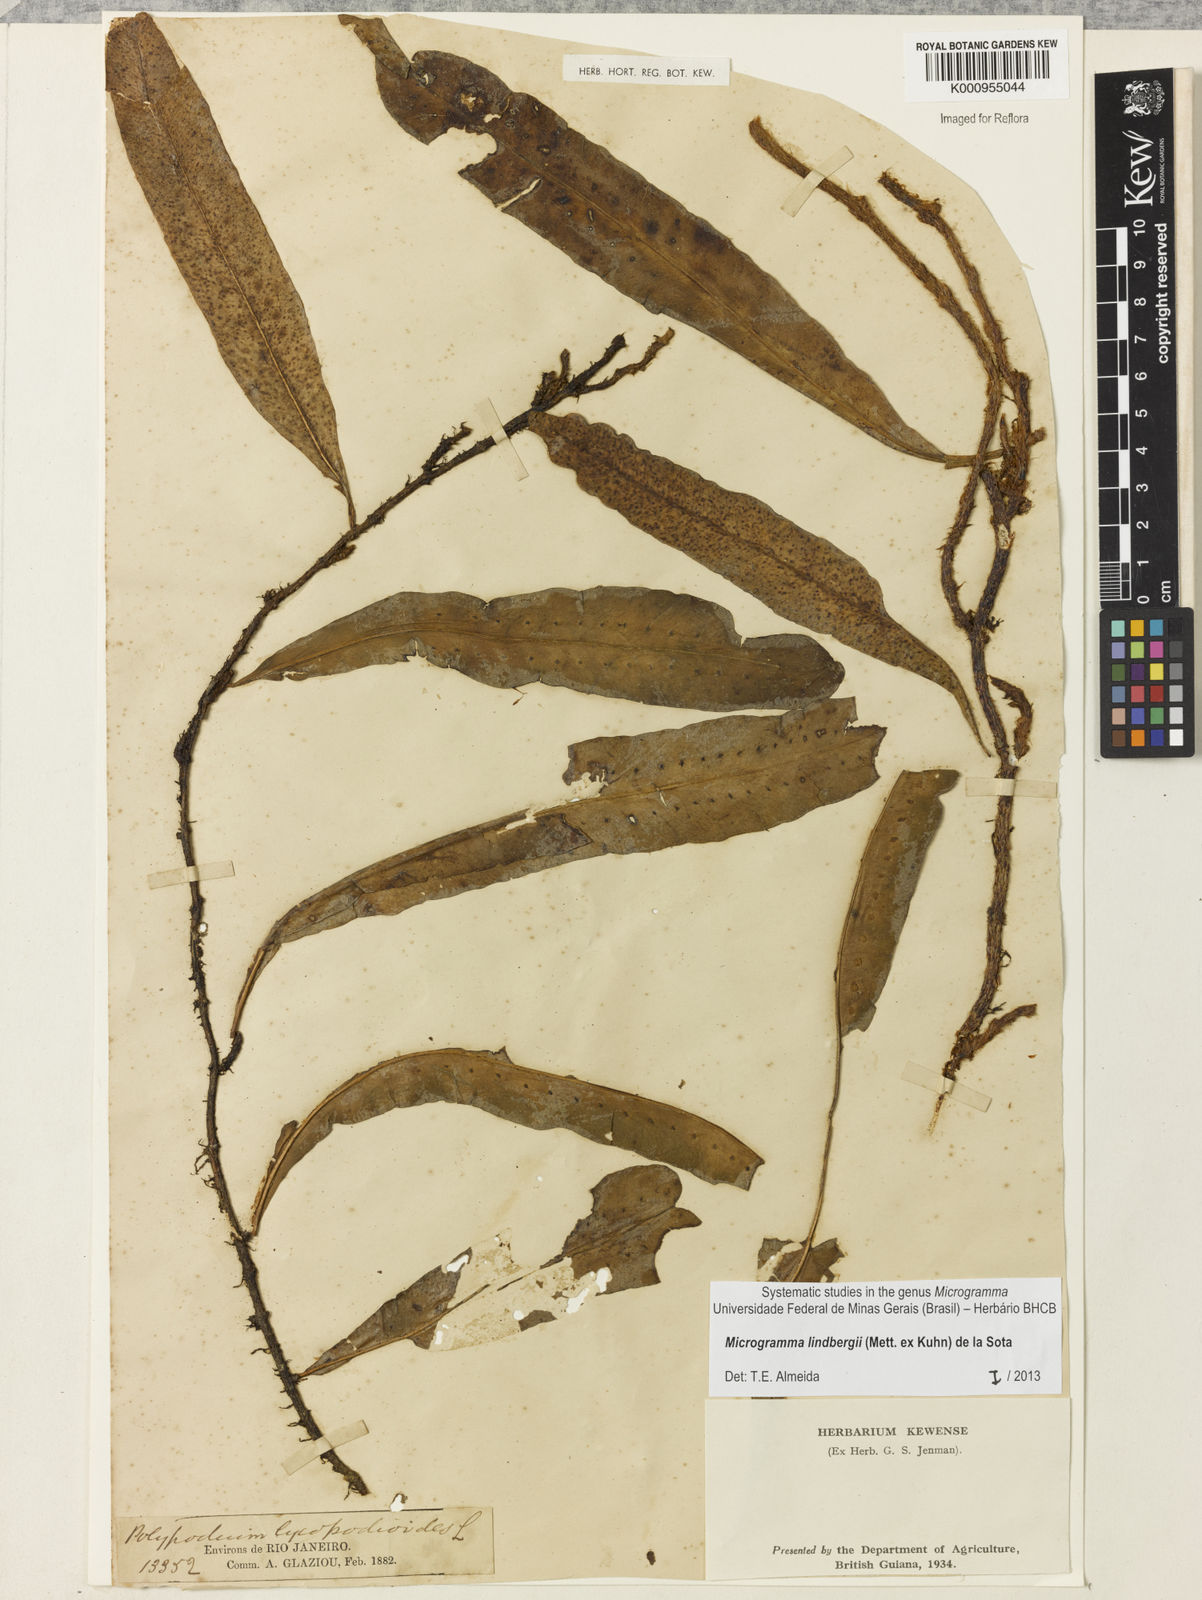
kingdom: Plantae
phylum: Tracheophyta
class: Polypodiopsida
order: Polypodiales
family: Polypodiaceae
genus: Microgramma
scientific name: Microgramma
